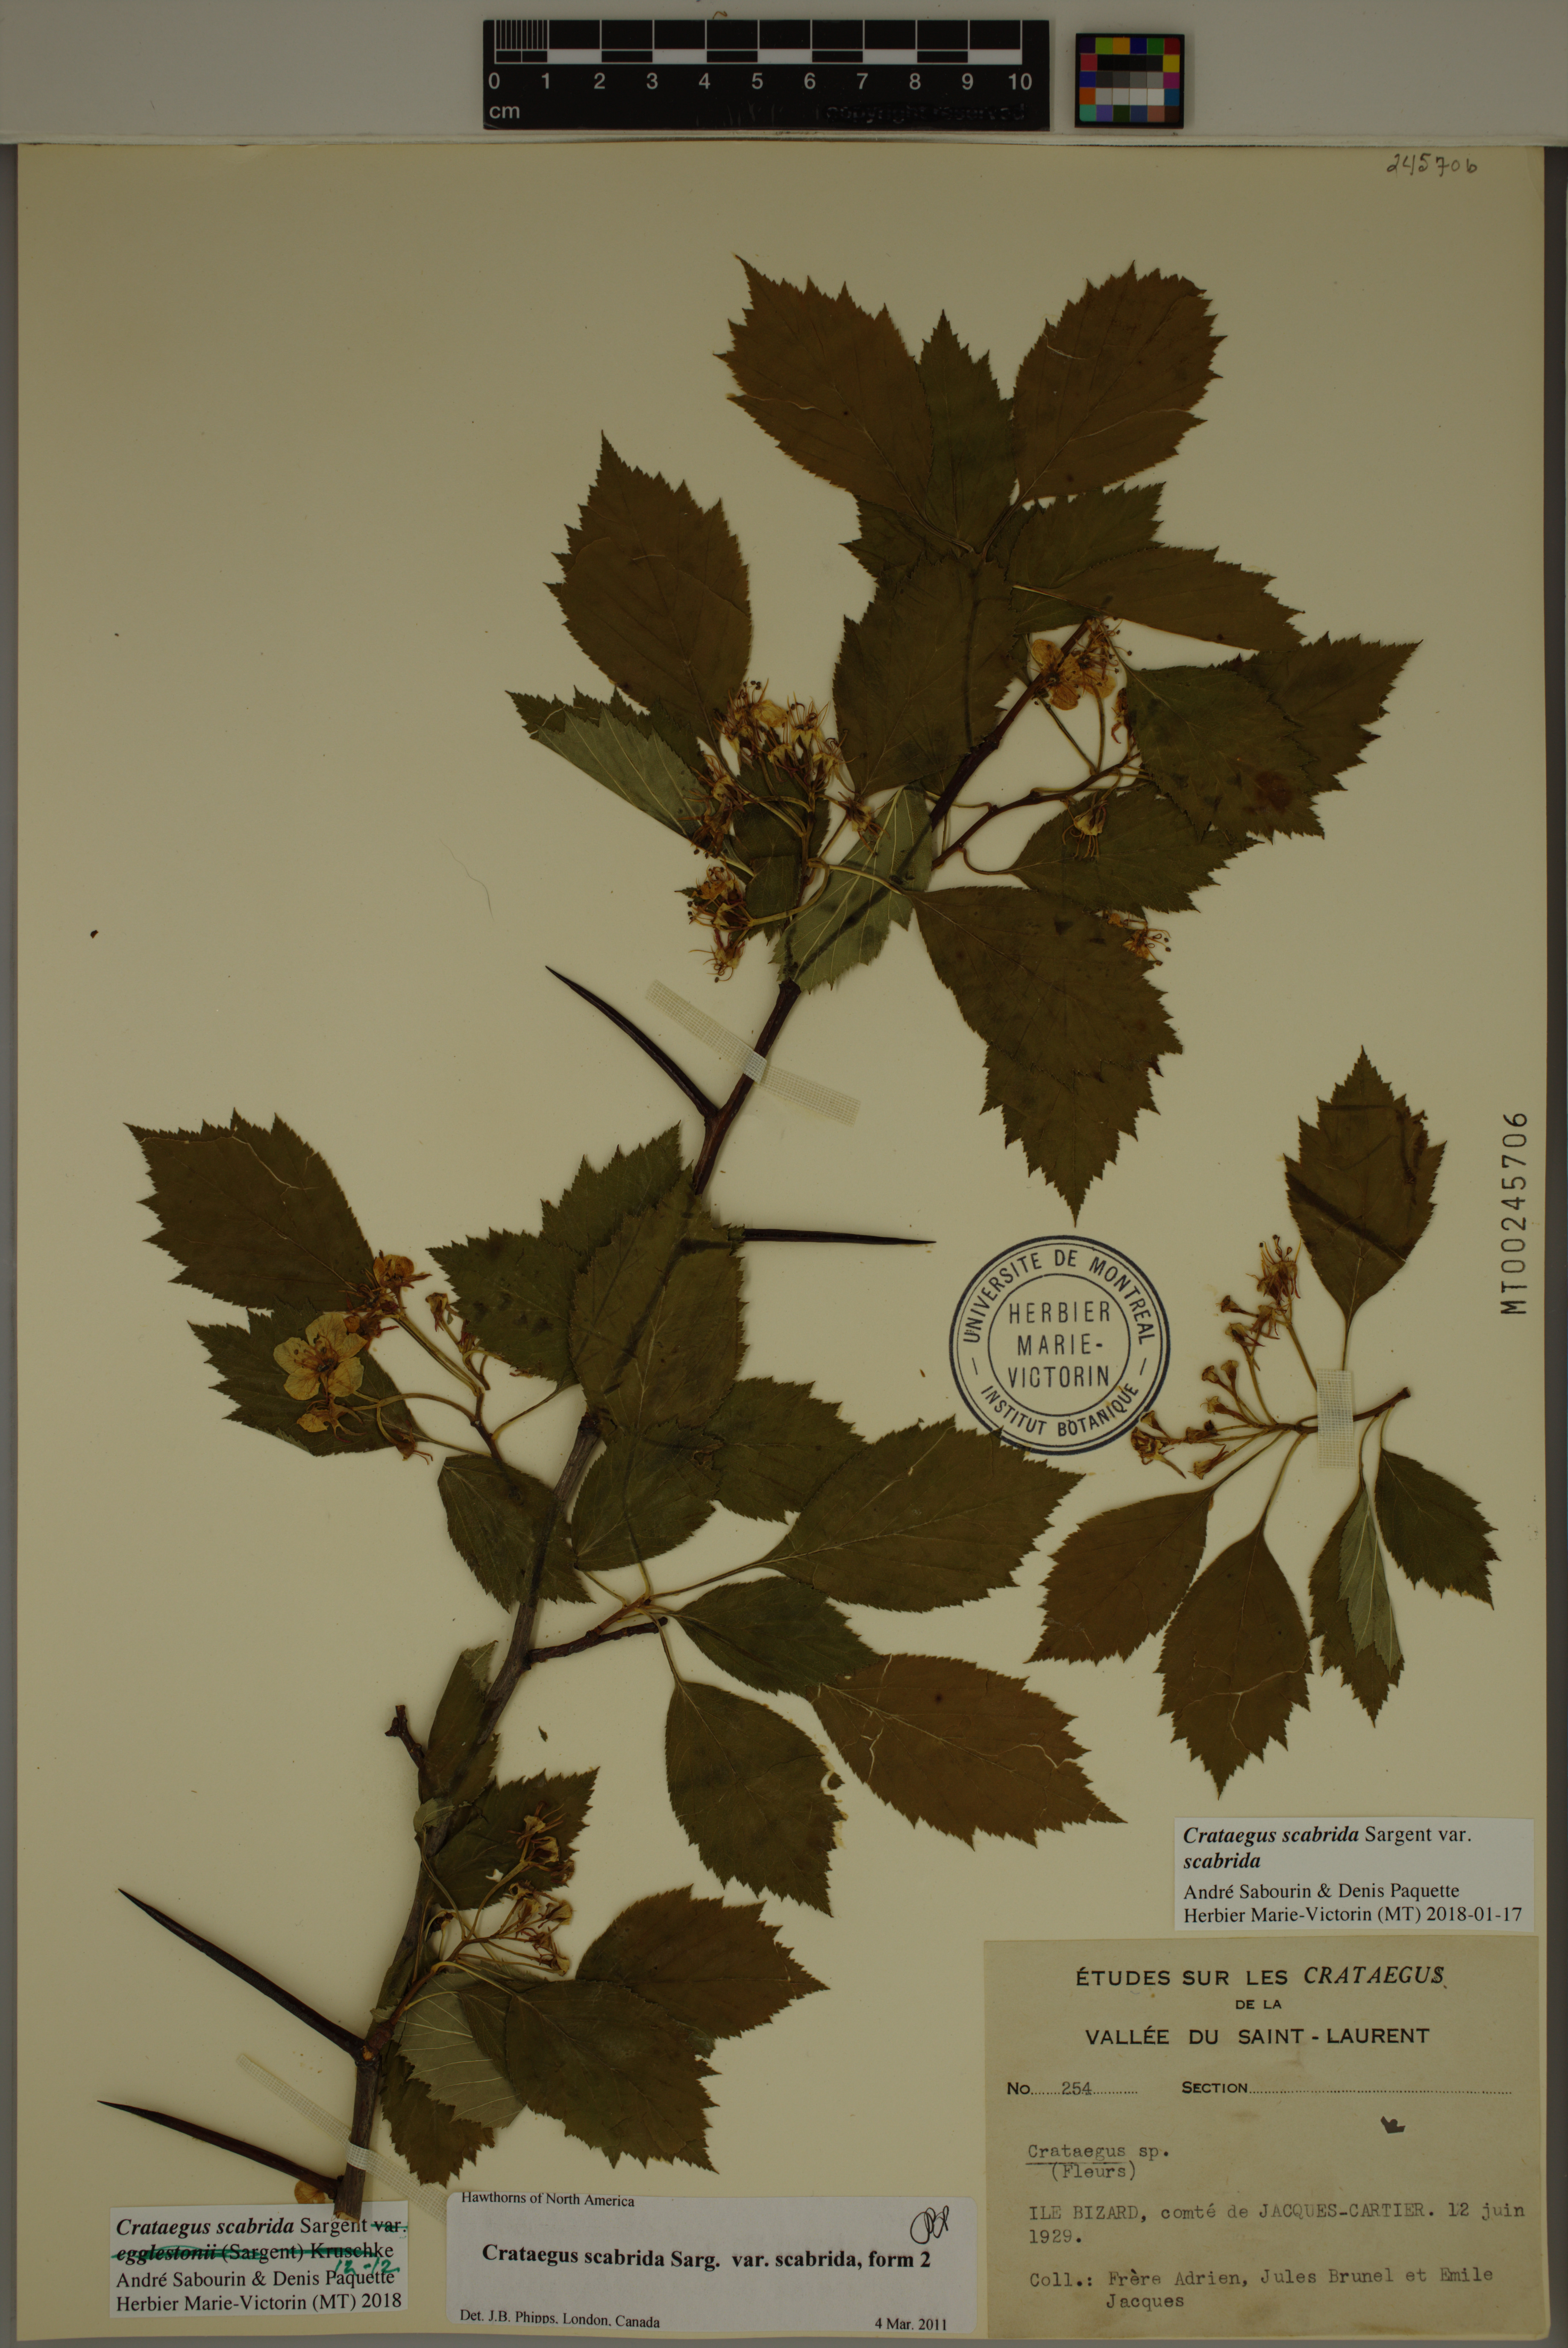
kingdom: Plantae
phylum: Tracheophyta
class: Magnoliopsida
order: Rosales
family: Rosaceae
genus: Crataegus
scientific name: Crataegus scabrida
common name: Rough hawthorn
